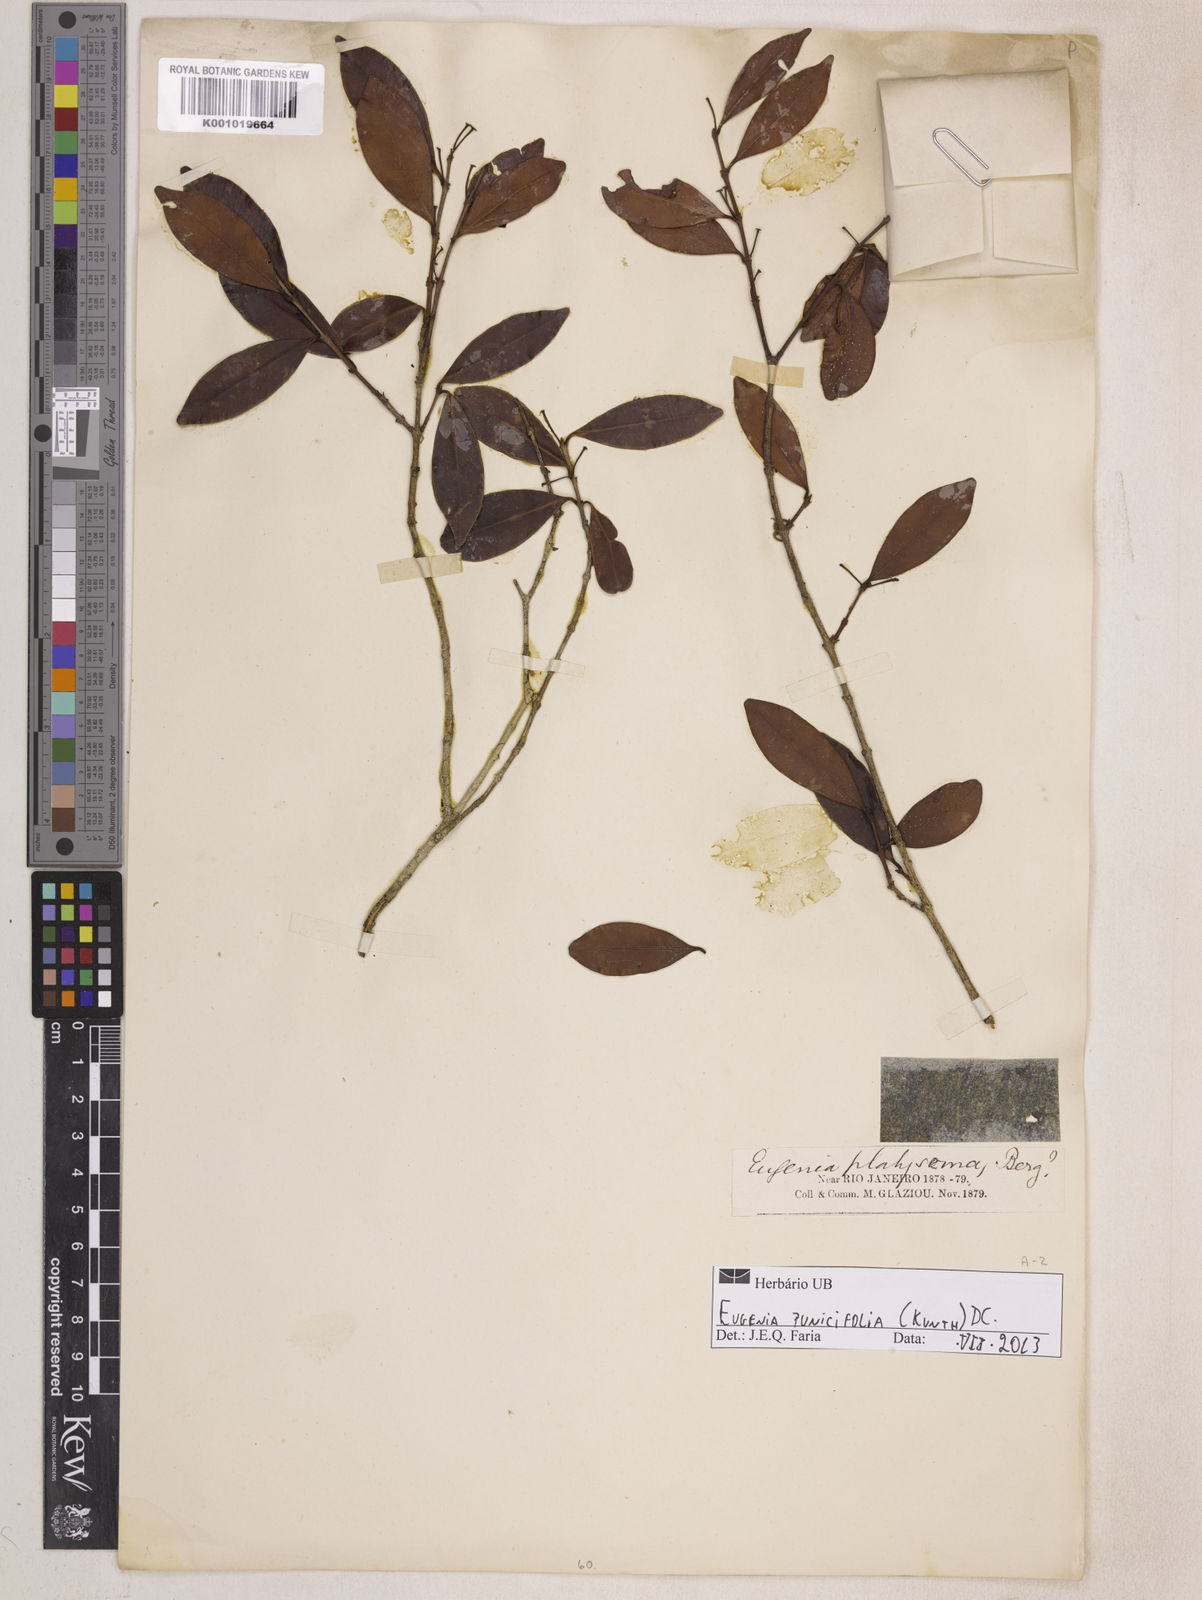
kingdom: Plantae
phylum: Tracheophyta
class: Magnoliopsida
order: Myrtales
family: Myrtaceae
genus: Eugenia
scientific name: Eugenia punicifolia
